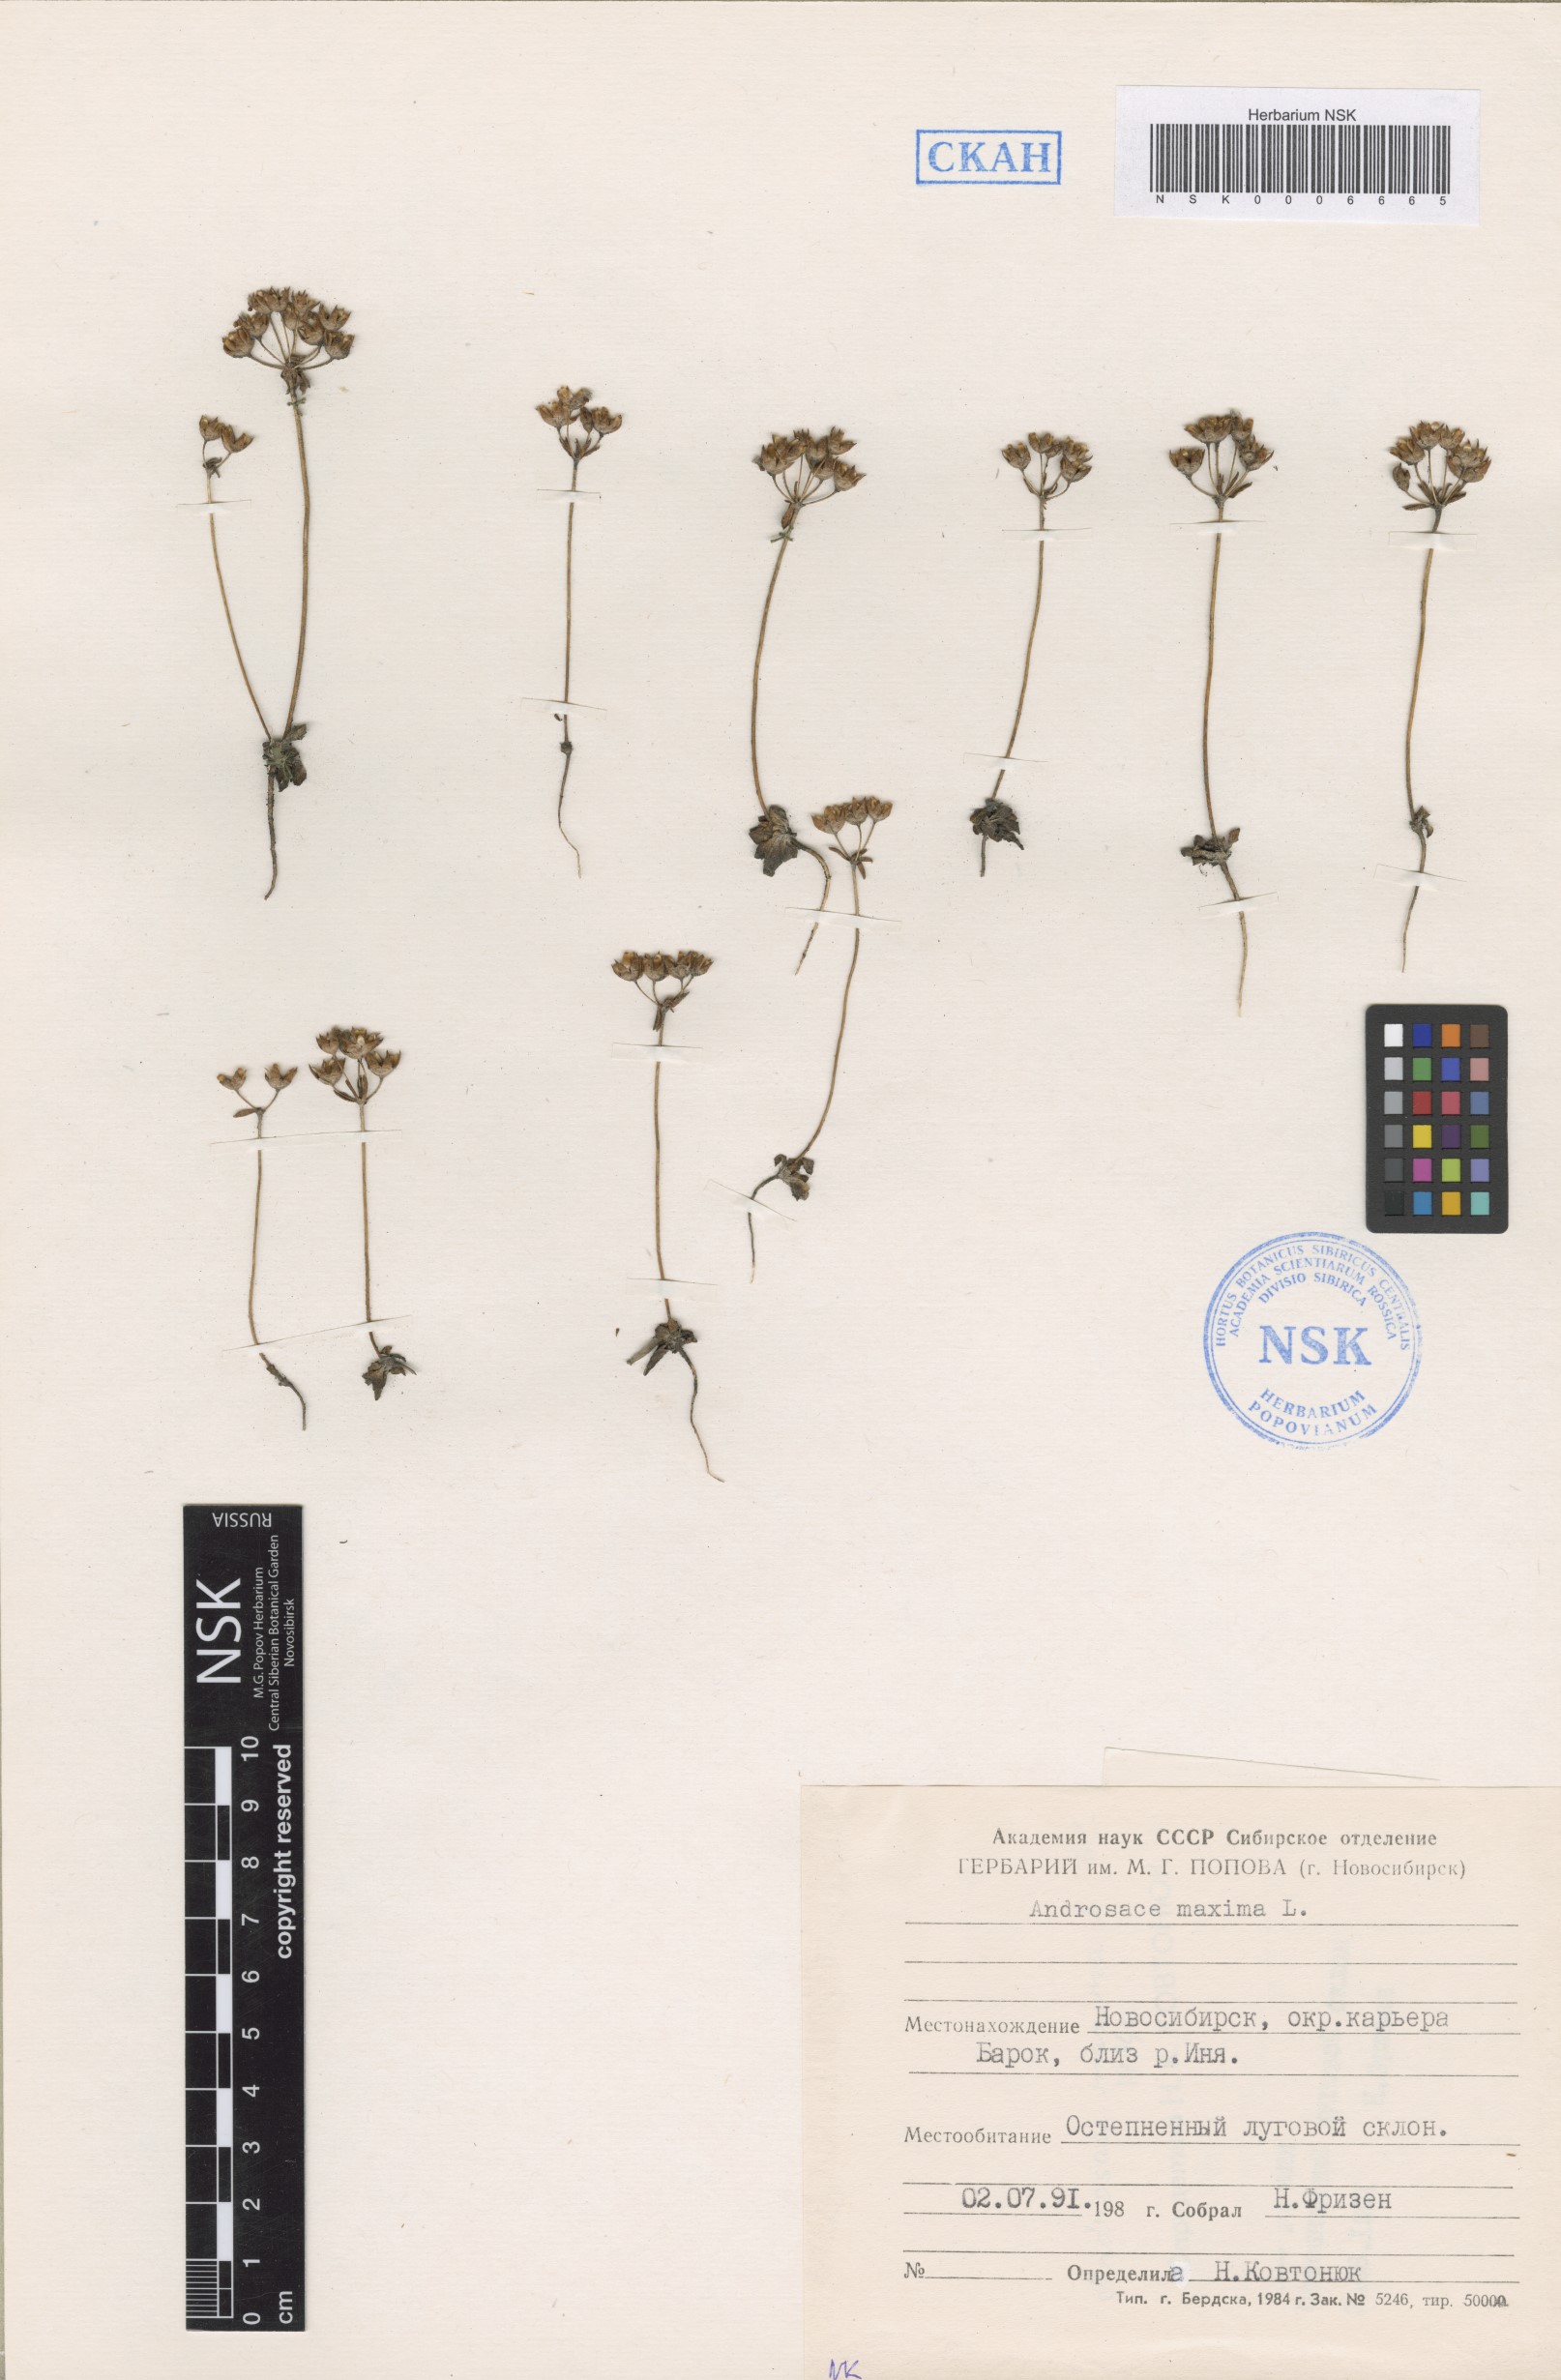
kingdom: Plantae
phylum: Tracheophyta
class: Magnoliopsida
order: Ericales
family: Primulaceae
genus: Androsace
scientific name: Androsace maxima
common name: Annual androsace
